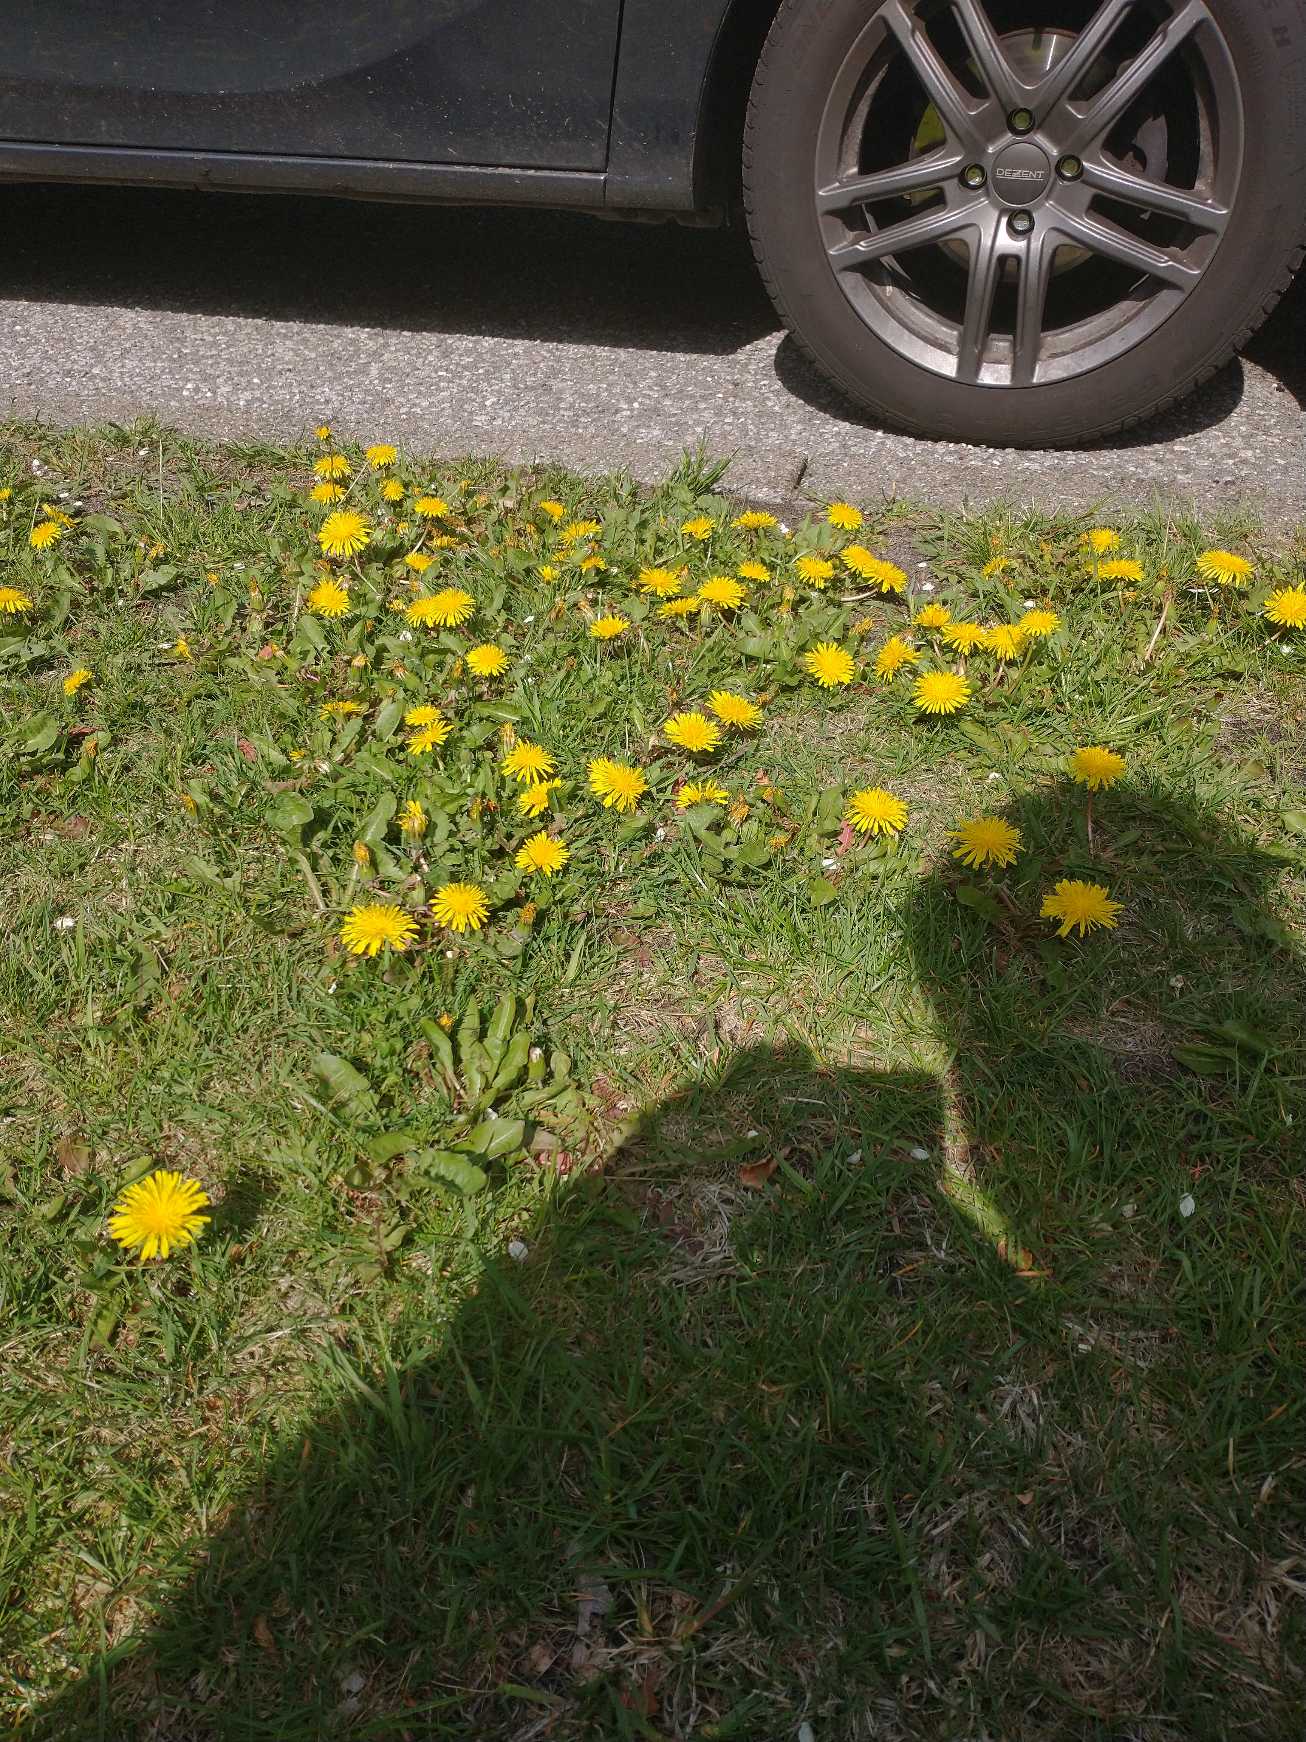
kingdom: Plantae
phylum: Tracheophyta
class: Magnoliopsida
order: Asterales
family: Asteraceae
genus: Taraxacum
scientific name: Taraxacum
